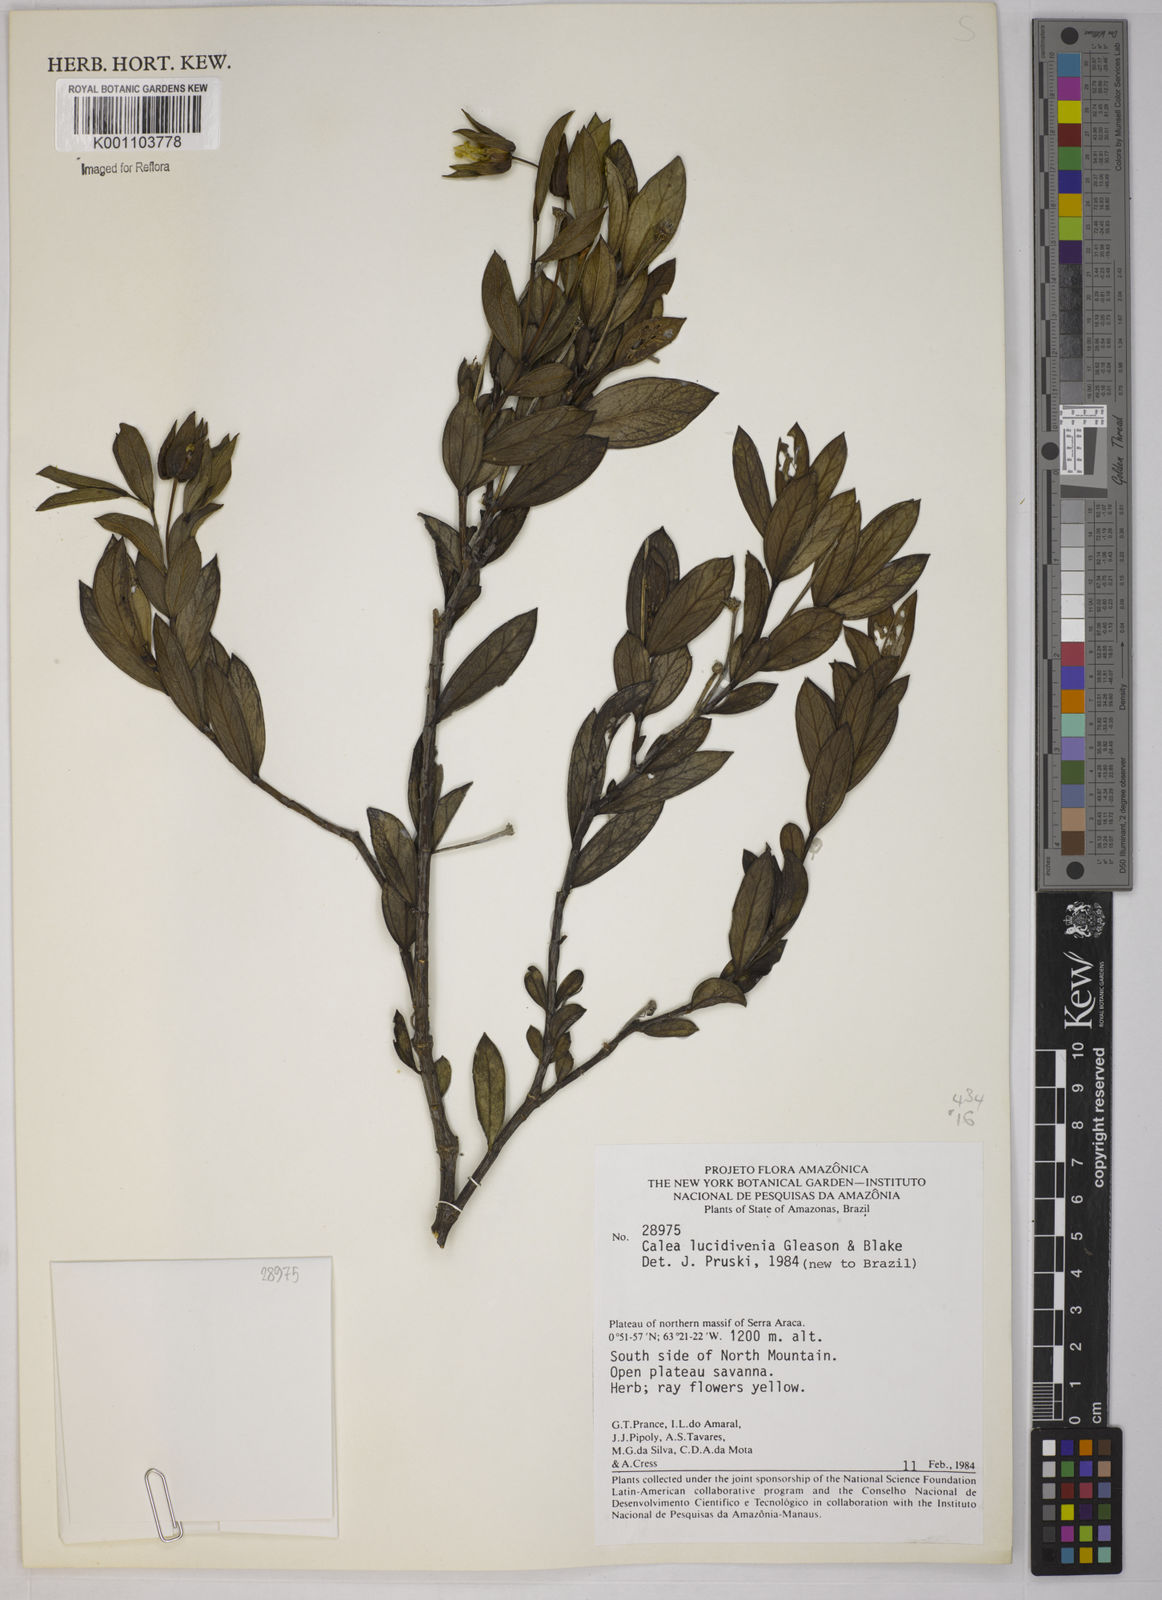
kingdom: Plantae
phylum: Tracheophyta
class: Magnoliopsida
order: Asterales
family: Asteraceae
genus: Calea
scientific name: Calea lucidivenia
